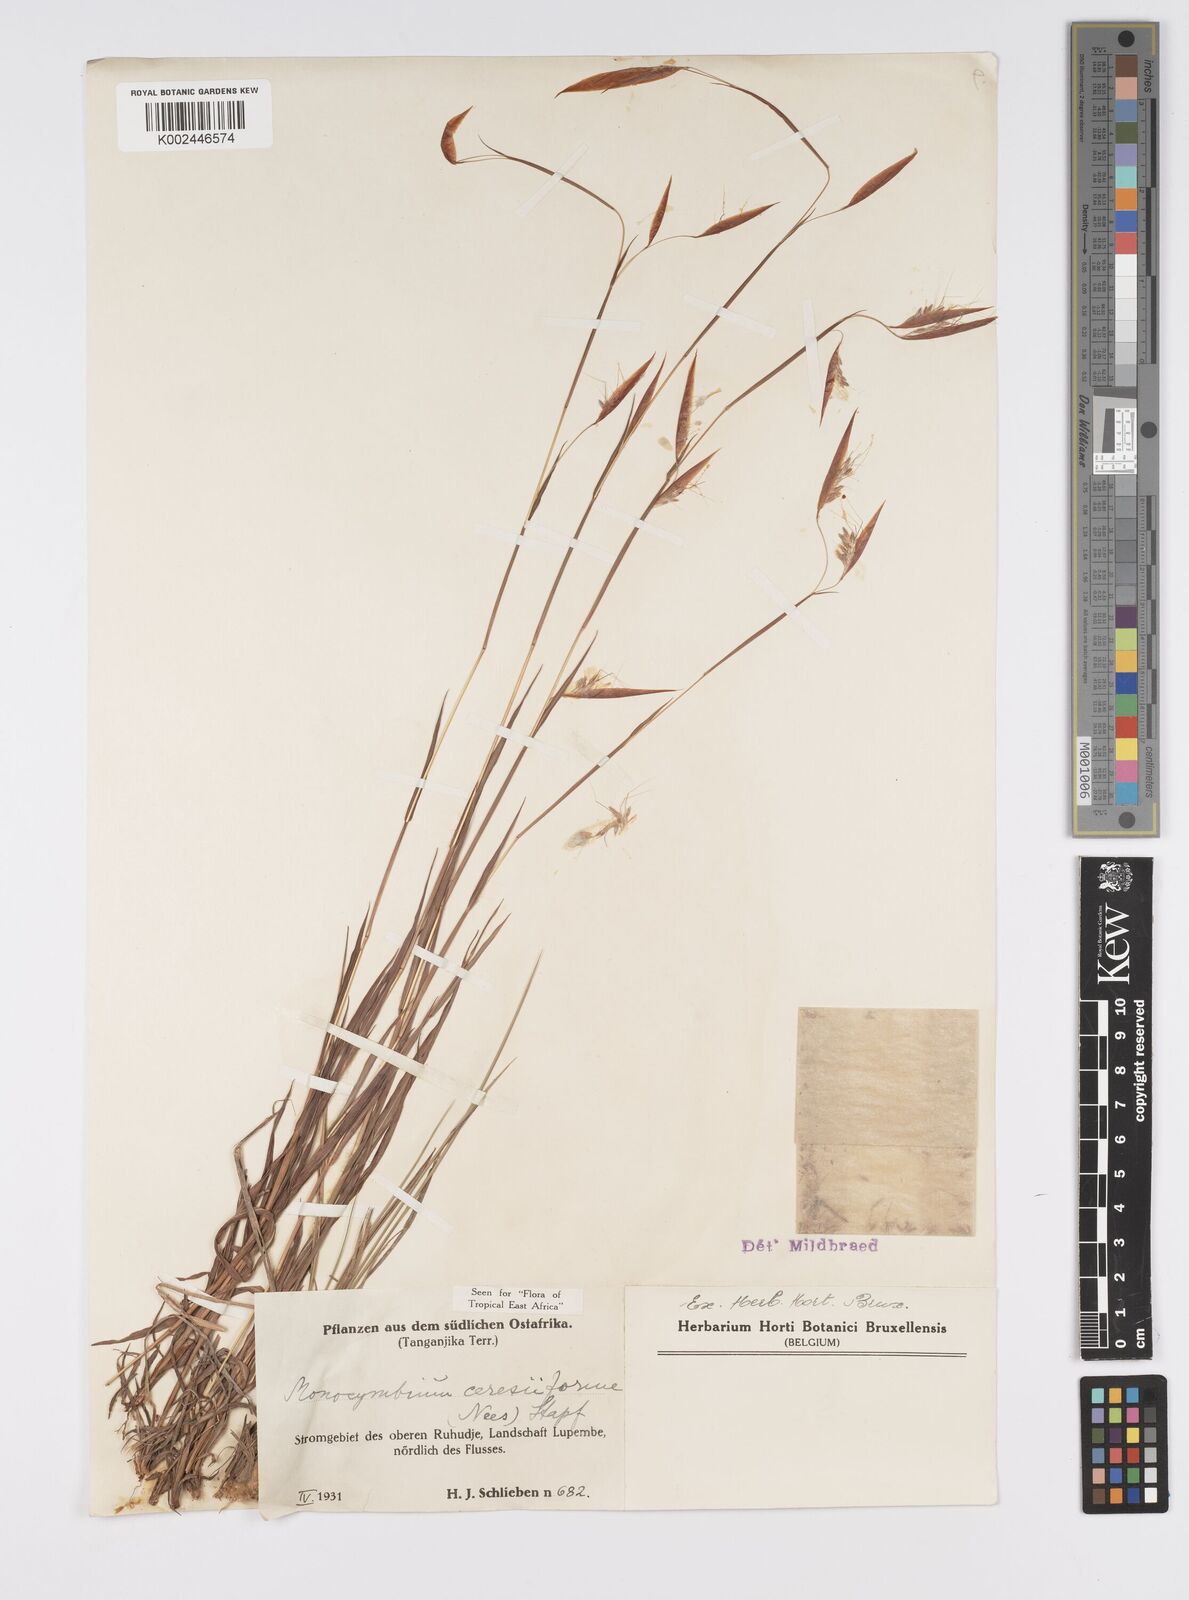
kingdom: Plantae
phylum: Tracheophyta
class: Liliopsida
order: Poales
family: Poaceae
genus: Monocymbium
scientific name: Monocymbium ceresiiforme
